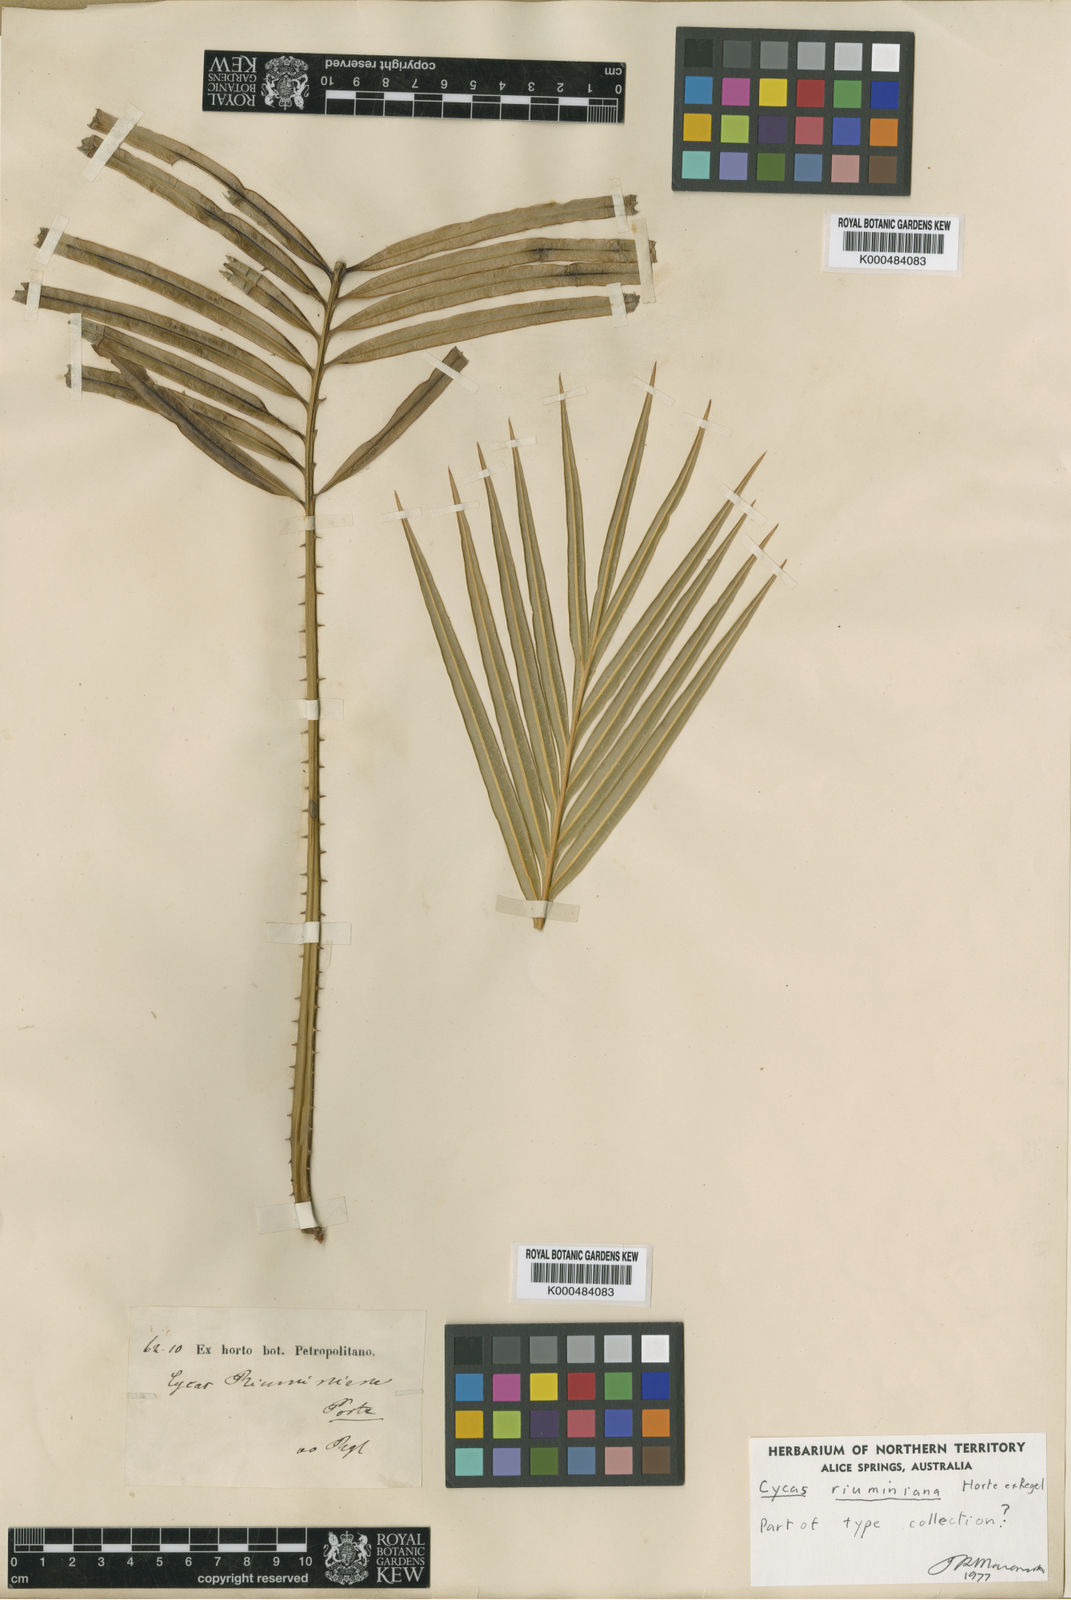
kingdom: Plantae
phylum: Tracheophyta
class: Cycadopsida
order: Cycadales
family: Cycadaceae
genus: Cycas
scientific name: Cycas riuminiana
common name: Arayat pitogo
